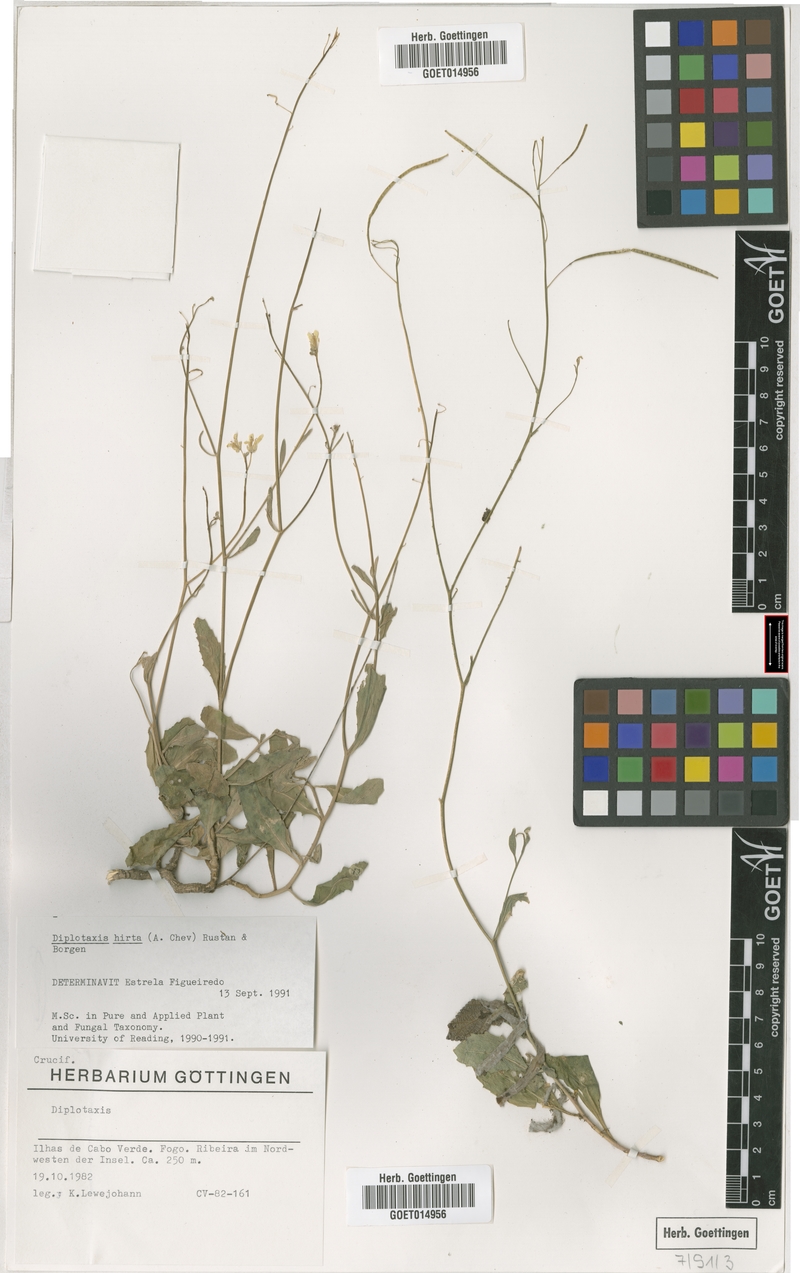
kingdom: Plantae
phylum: Tracheophyta
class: Magnoliopsida
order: Brassicales
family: Brassicaceae
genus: Diplotaxis
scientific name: Diplotaxis hirta
